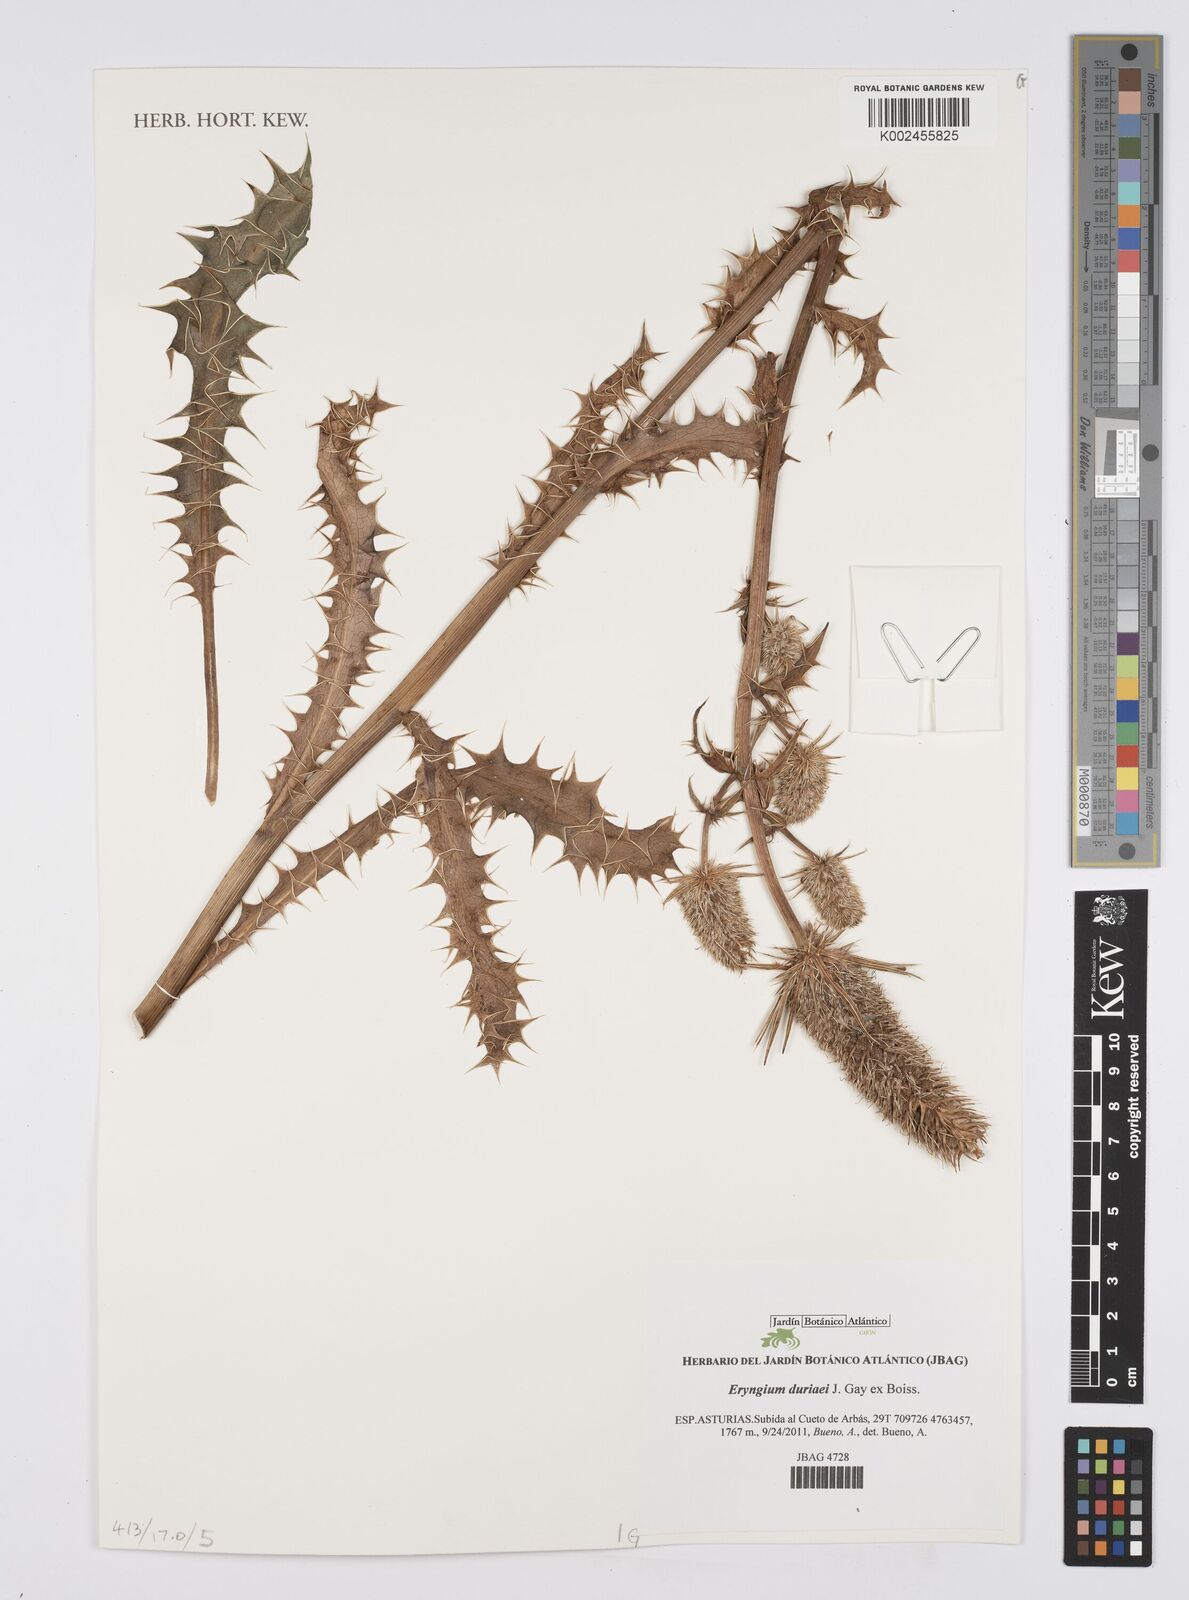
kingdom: Plantae
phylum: Tracheophyta
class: Magnoliopsida
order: Apiales
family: Apiaceae
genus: Eryngium
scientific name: Eryngium duriaei
